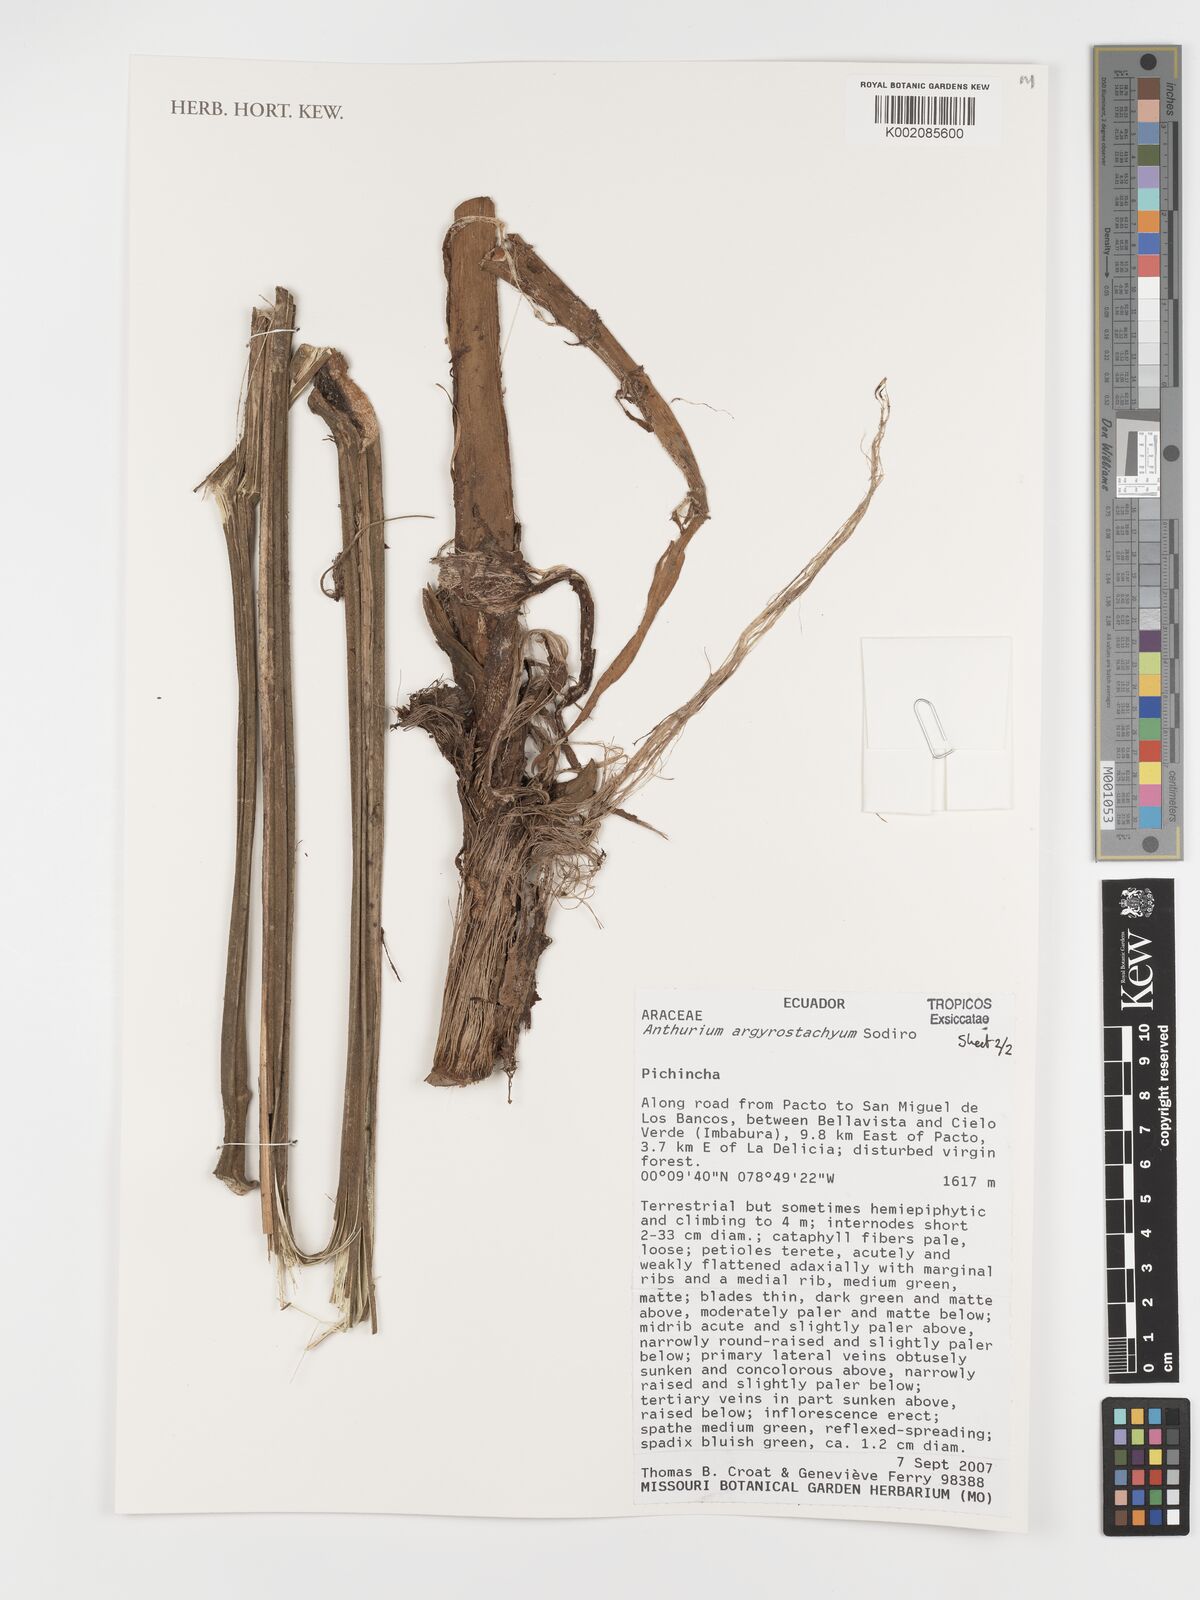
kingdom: Plantae
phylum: Tracheophyta
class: Liliopsida
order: Alismatales
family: Araceae
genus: Anthurium
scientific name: Anthurium argyrostachyum
